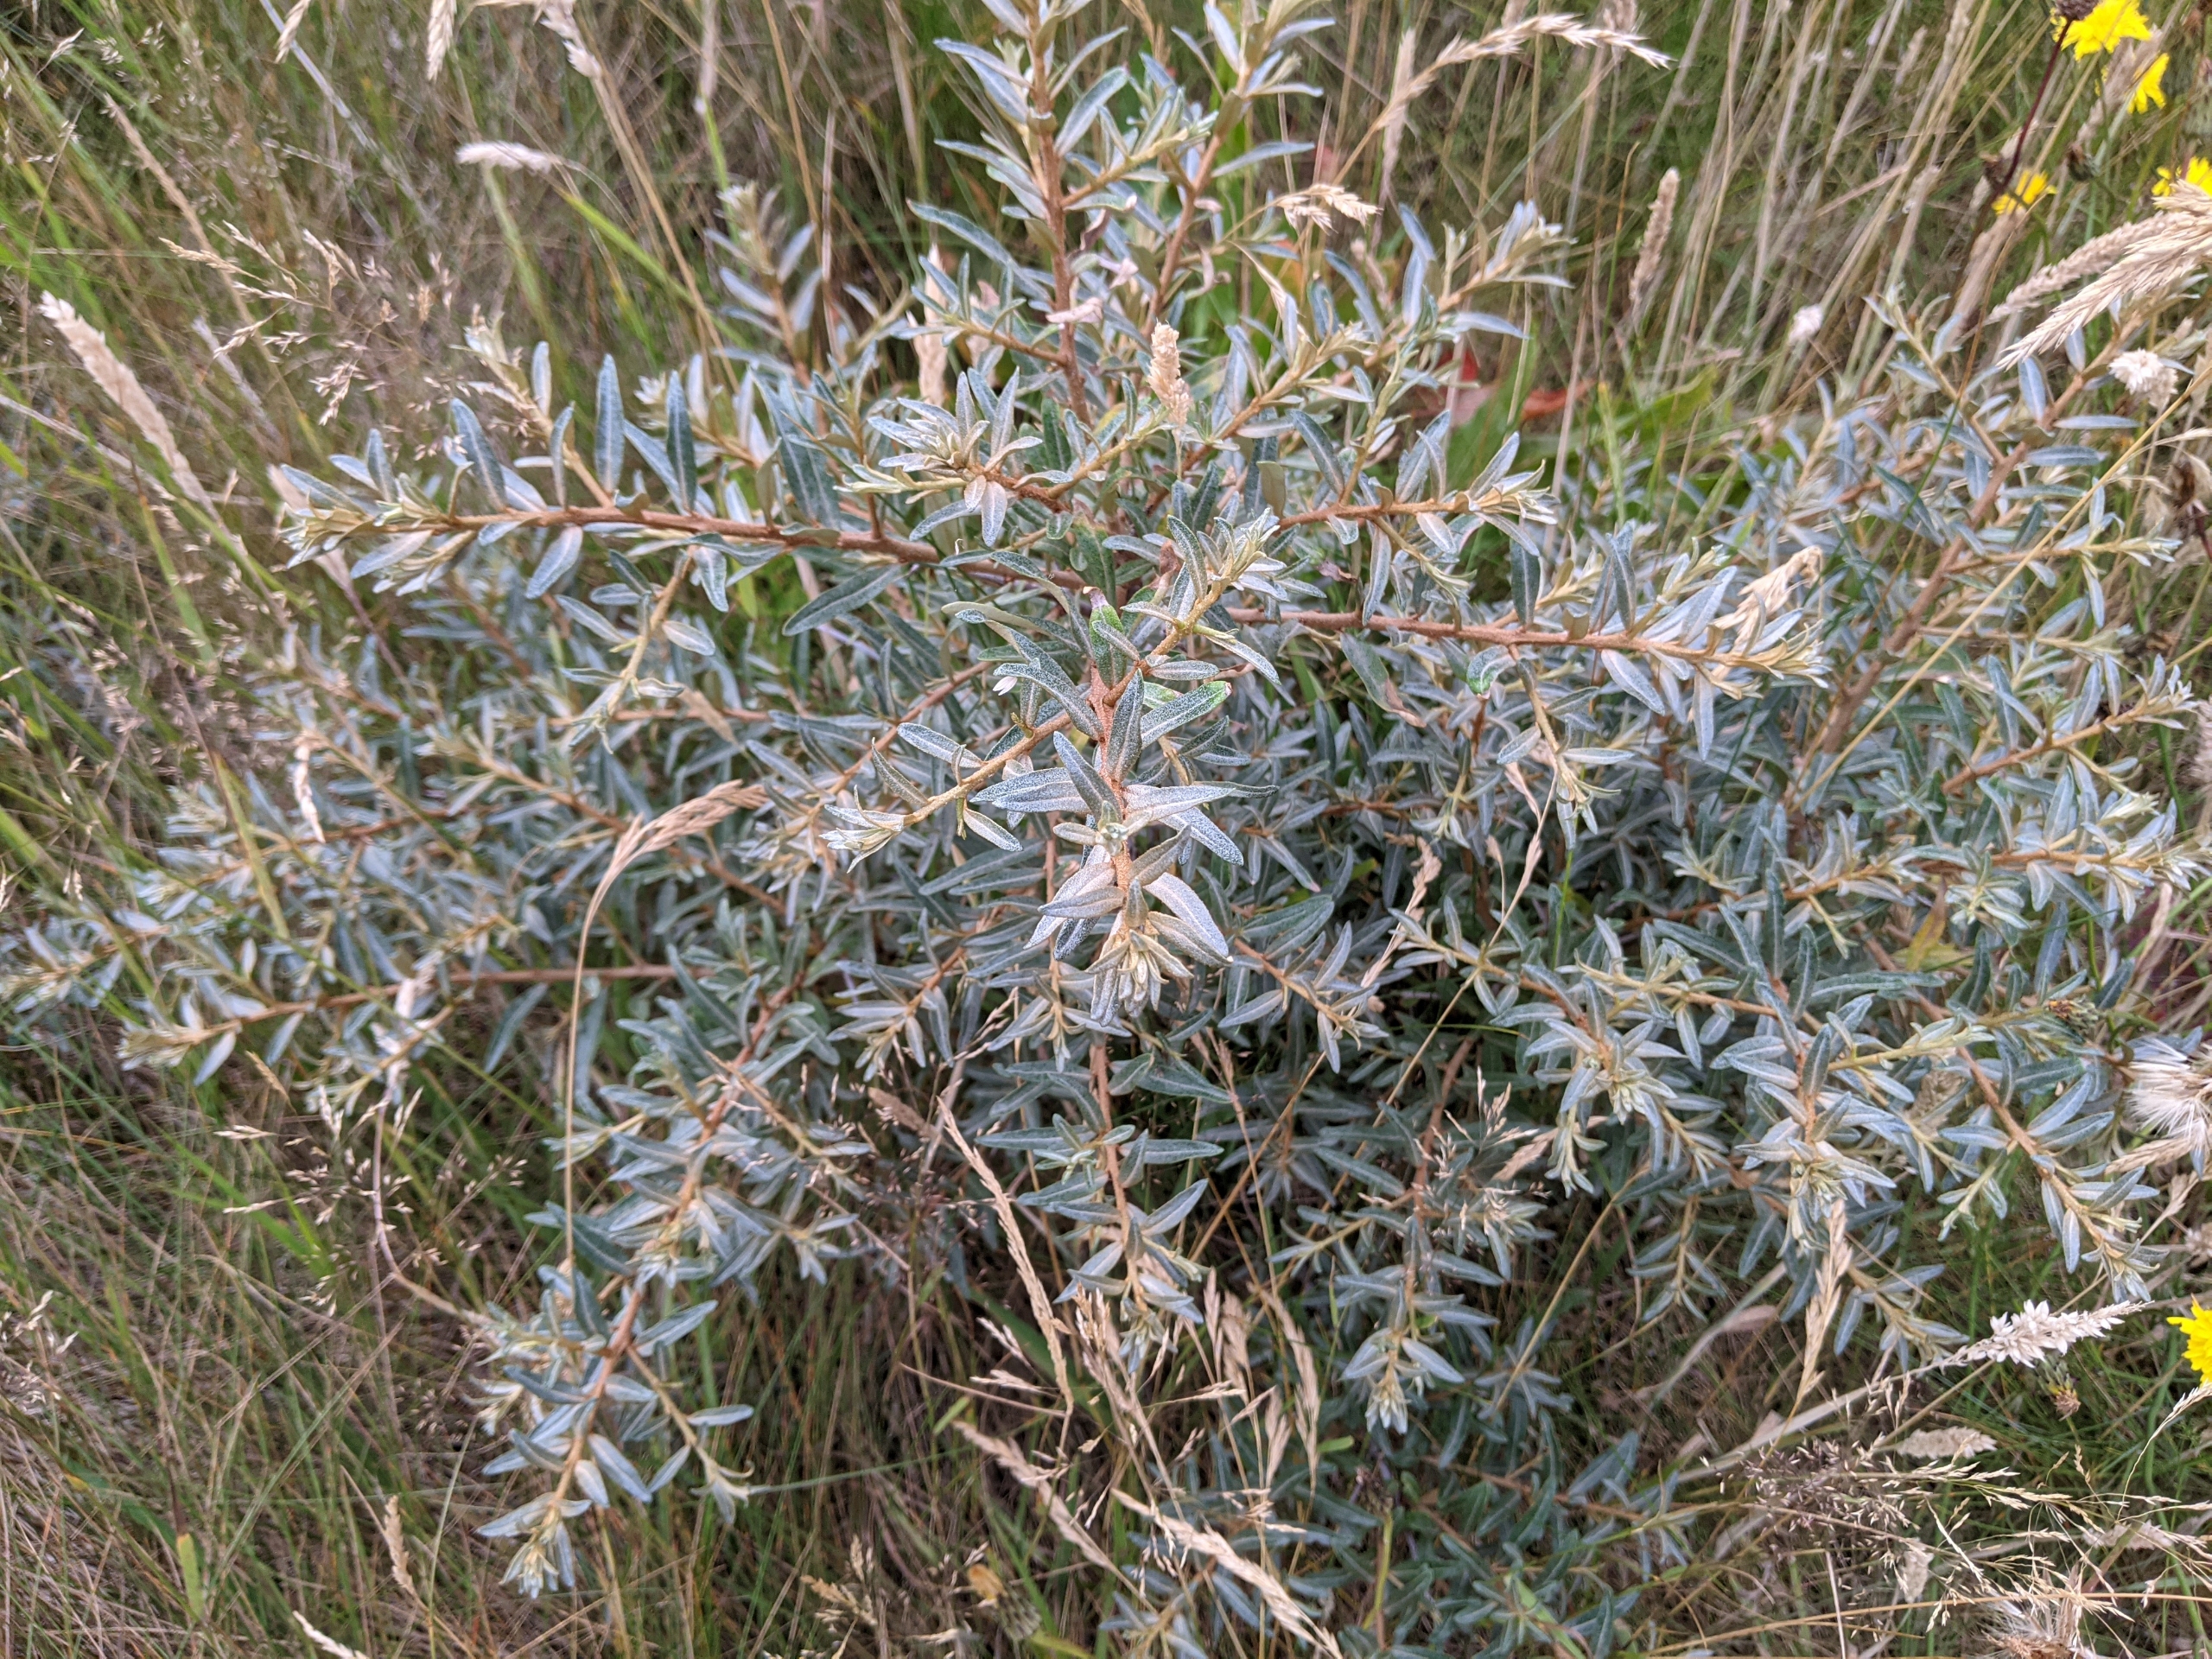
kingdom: Plantae
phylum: Tracheophyta
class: Magnoliopsida
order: Rosales
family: Elaeagnaceae
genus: Hippophae
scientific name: Hippophae rhamnoides
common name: Havtorn
